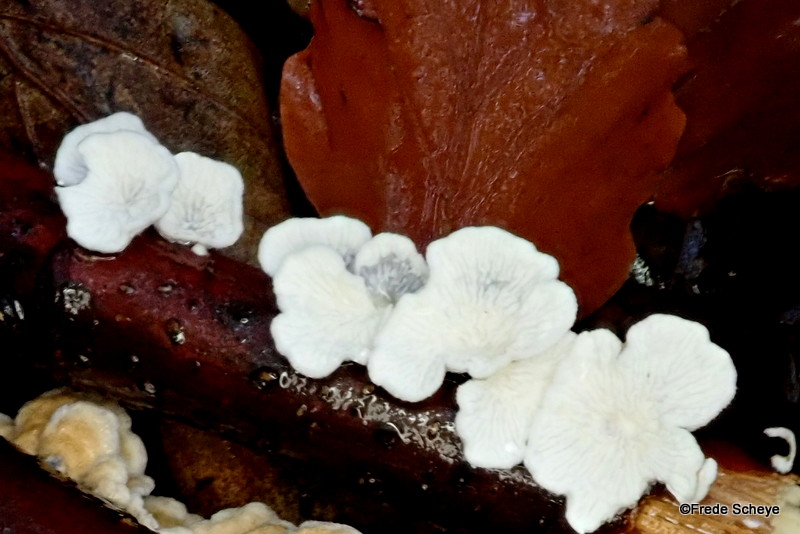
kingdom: Fungi
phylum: Basidiomycota
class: Agaricomycetes
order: Amylocorticiales
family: Amylocorticiaceae
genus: Plicaturopsis
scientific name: Plicaturopsis crispa
